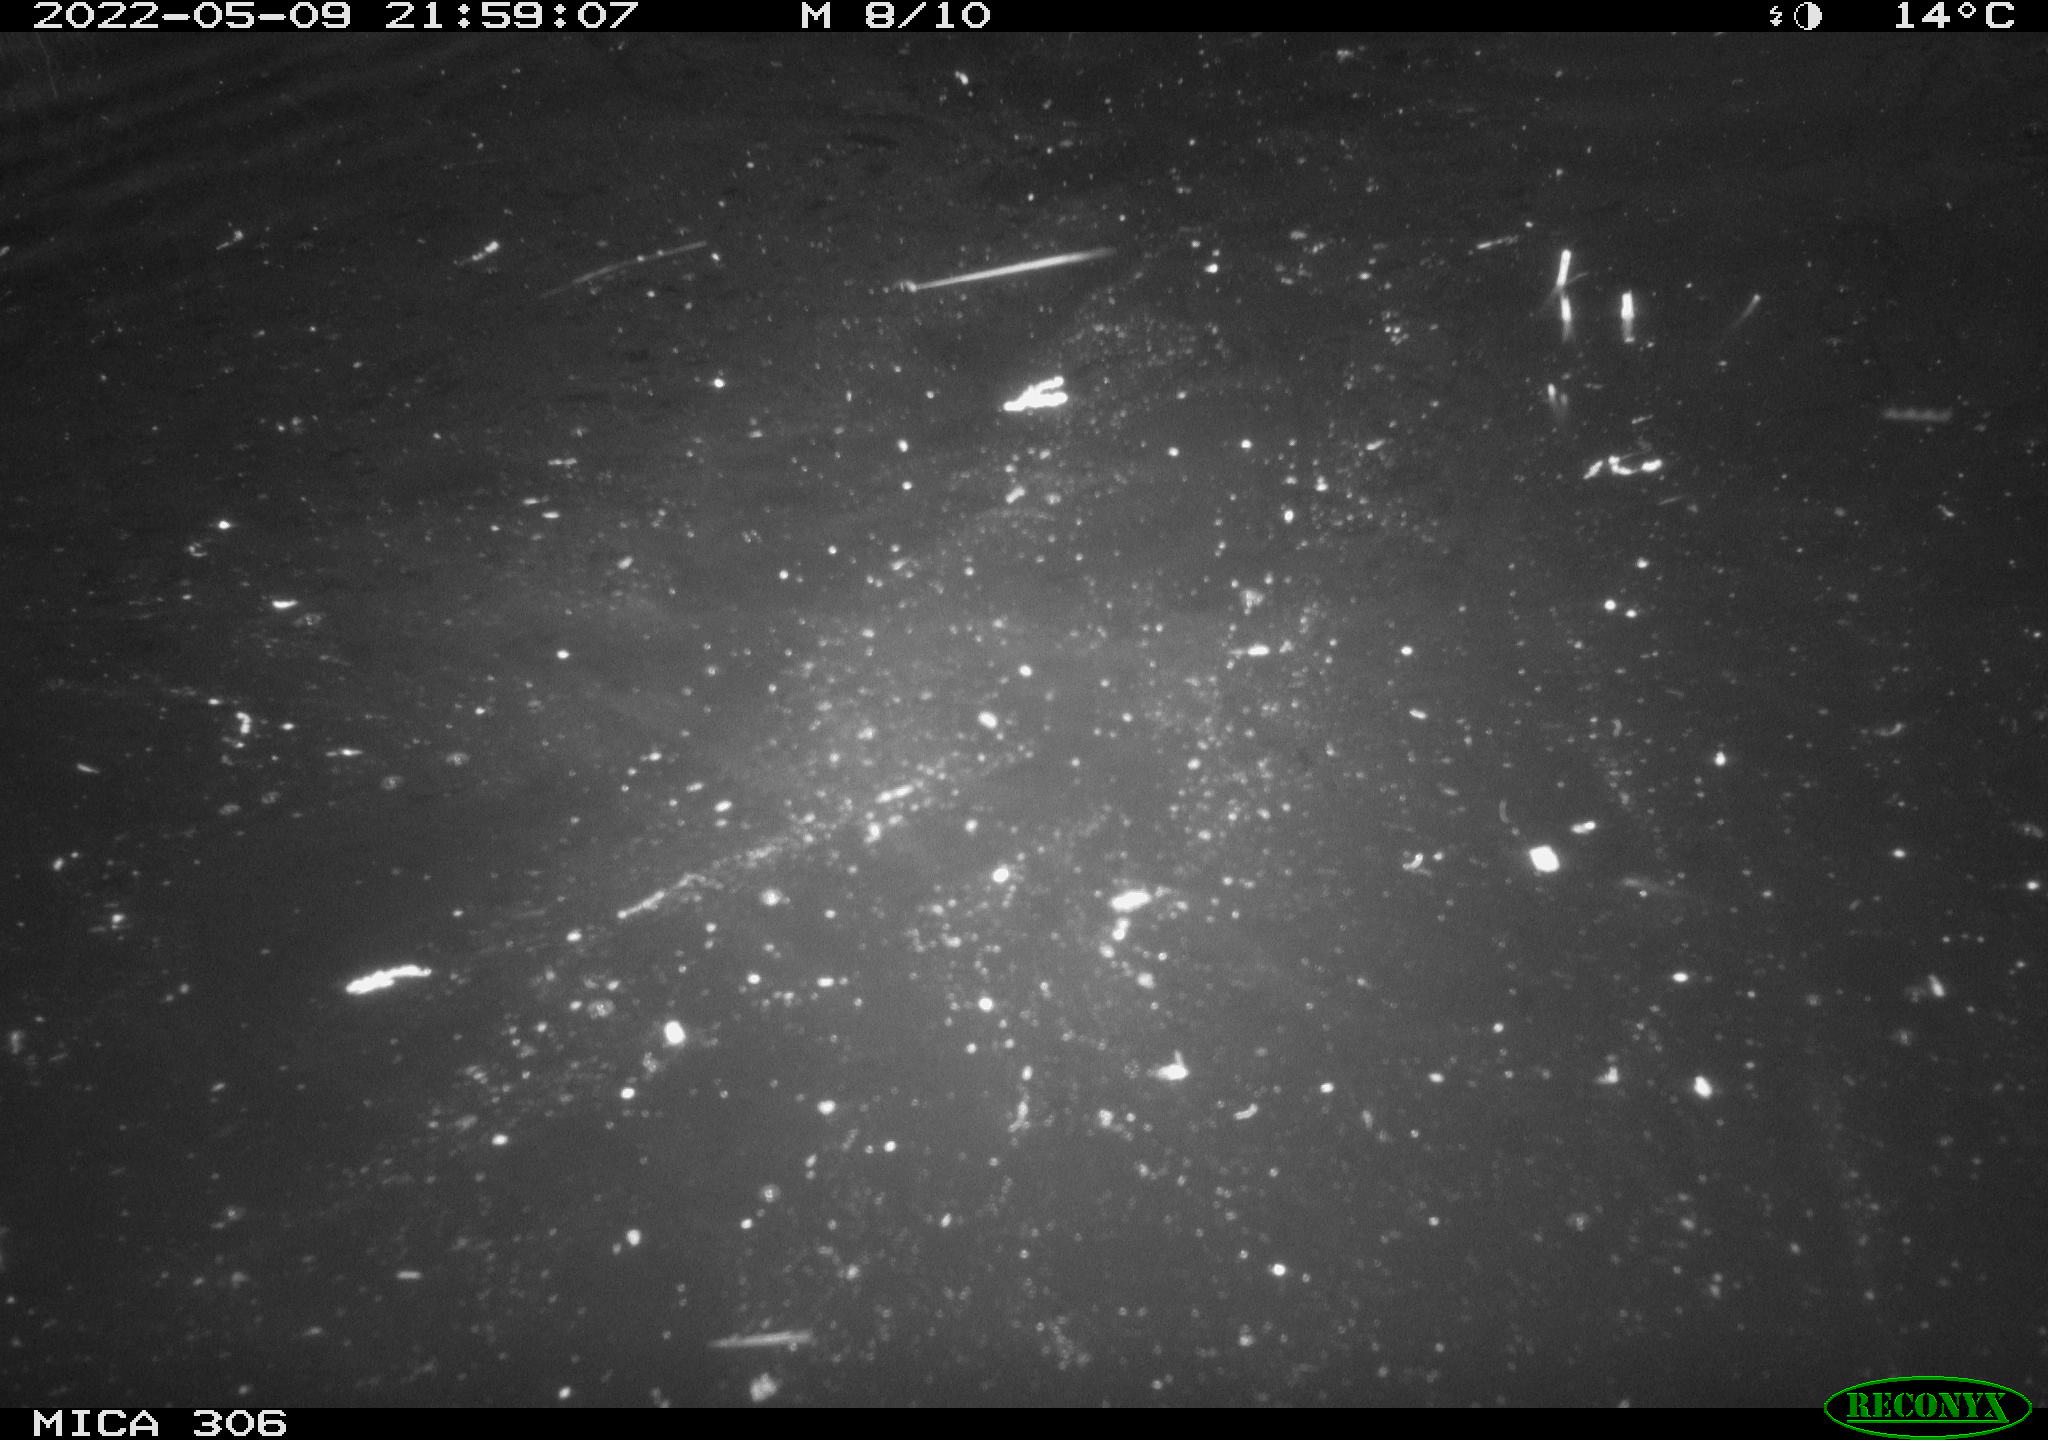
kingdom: Animalia
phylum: Chordata
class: Mammalia
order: Rodentia
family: Cricetidae
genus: Ondatra
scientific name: Ondatra zibethicus
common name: Muskrat
